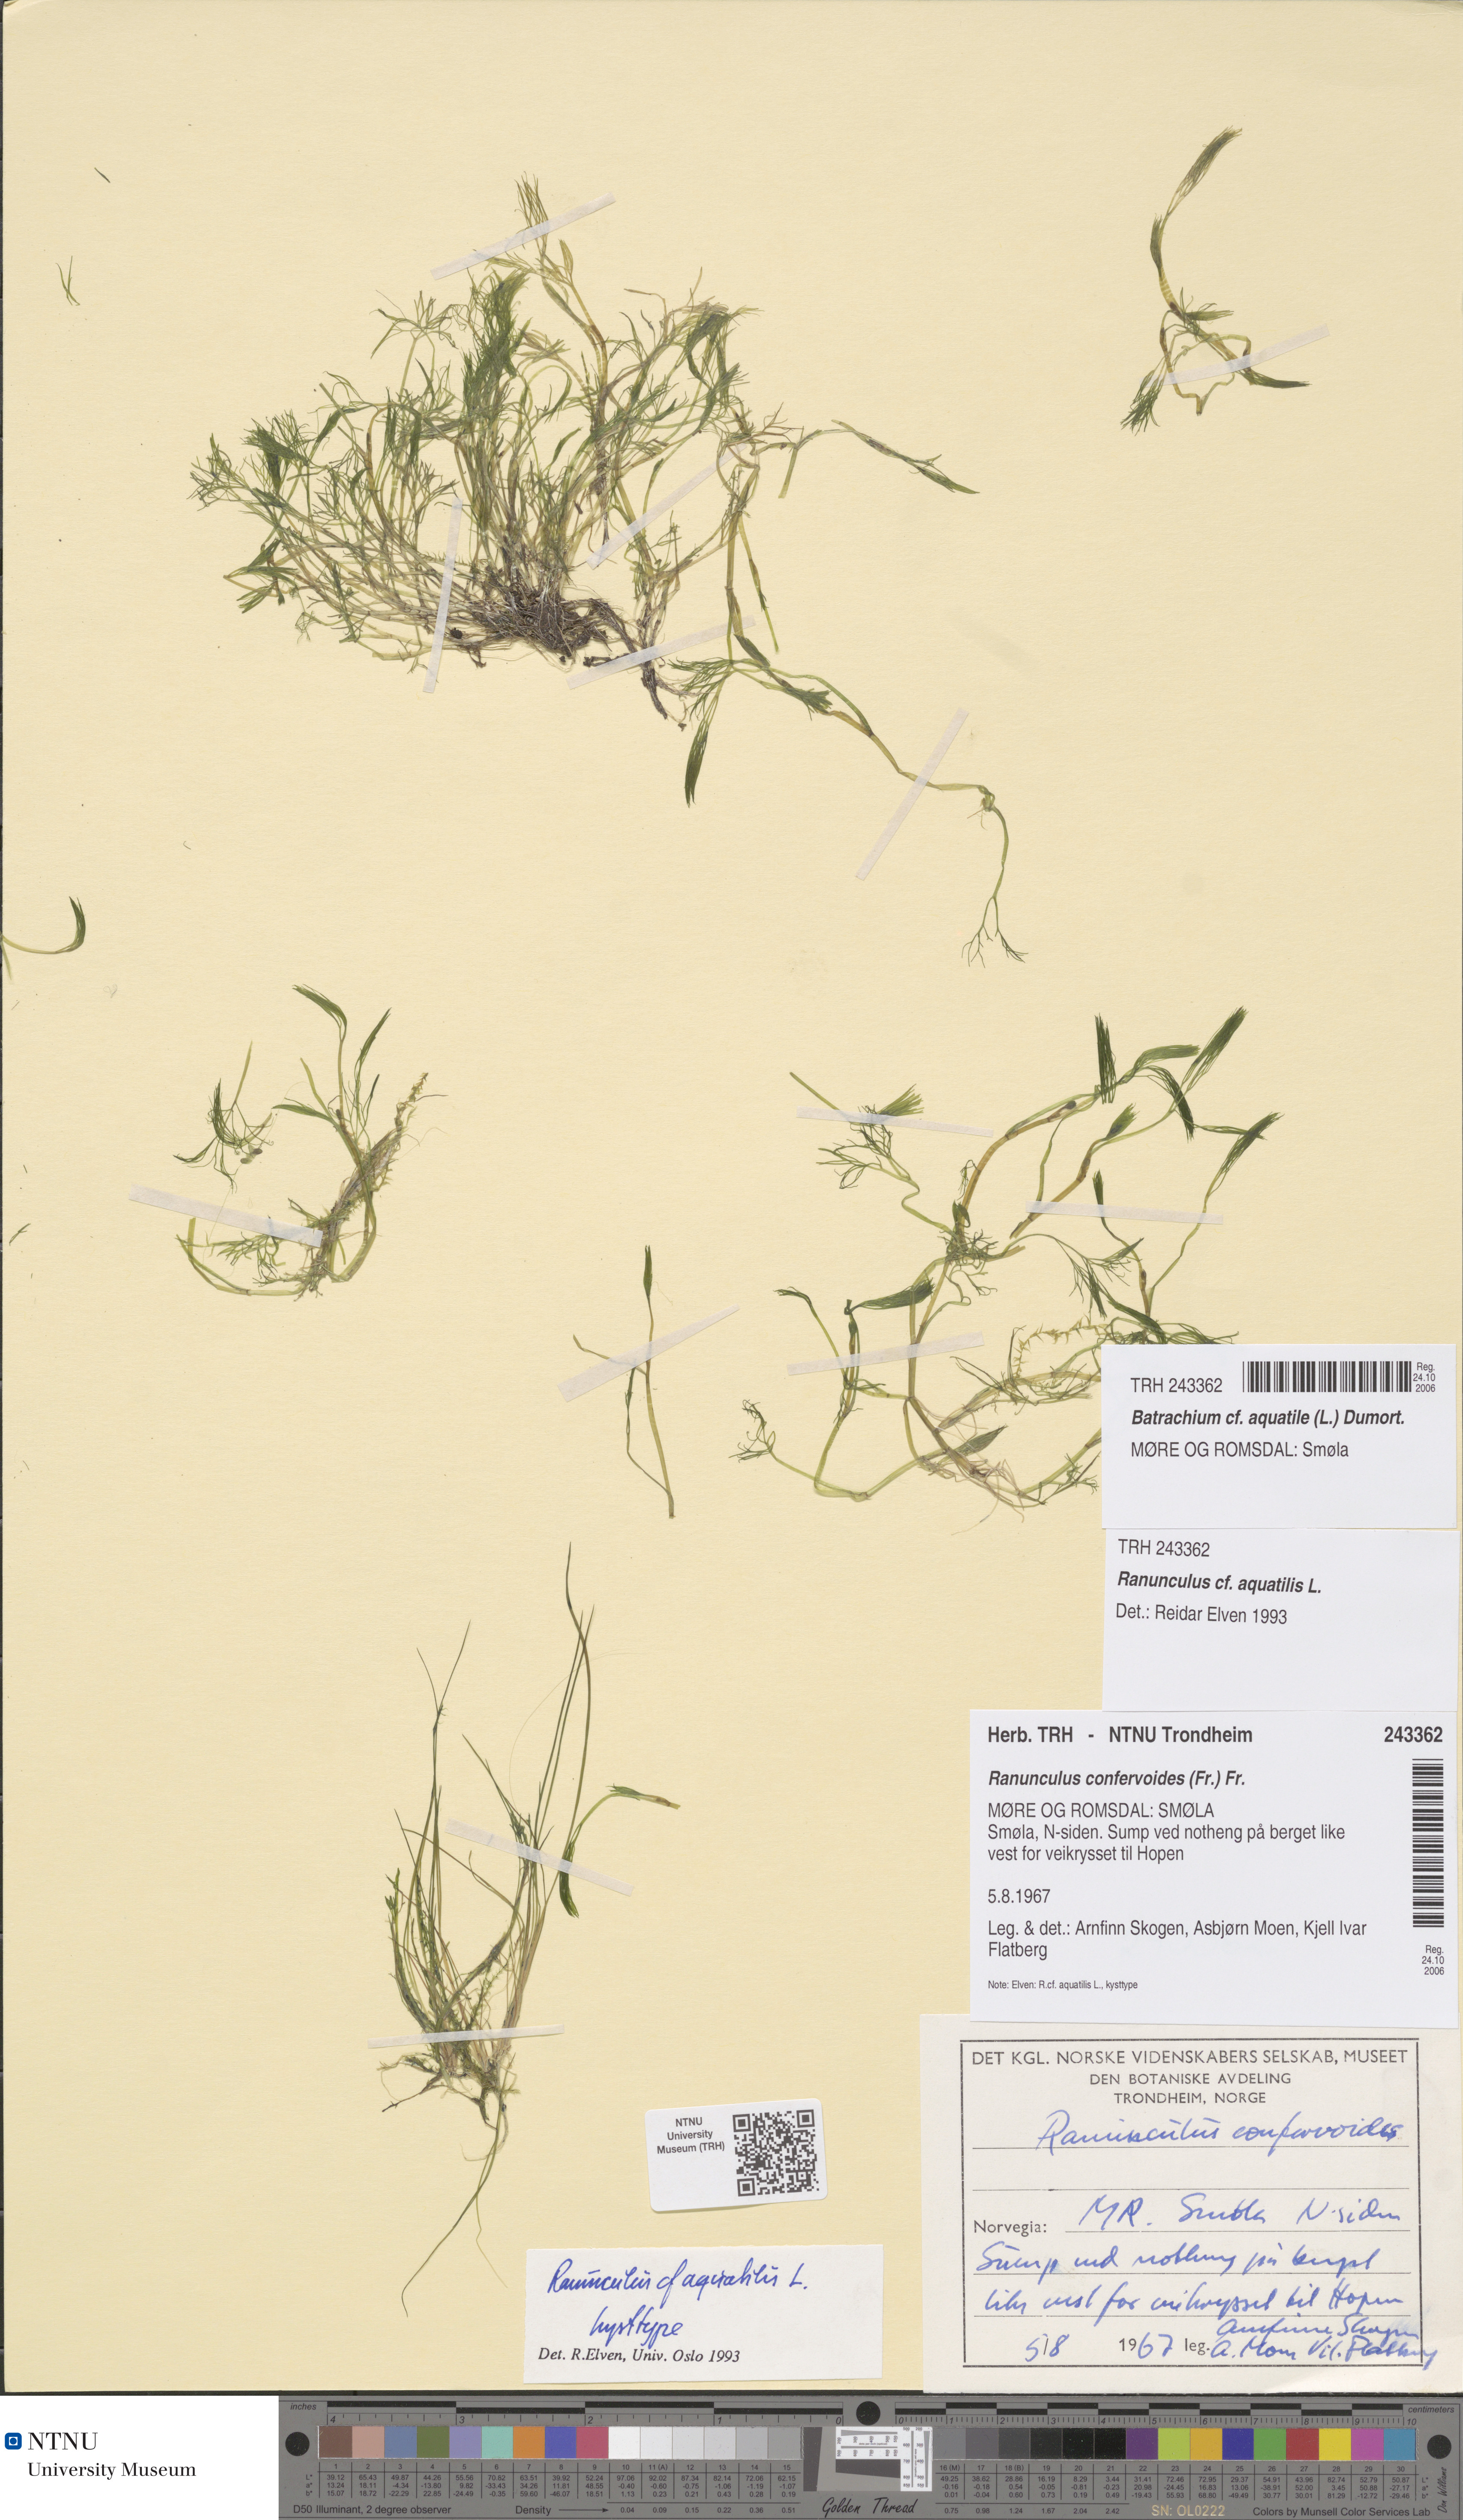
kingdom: Plantae
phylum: Tracheophyta
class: Magnoliopsida
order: Ranunculales
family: Ranunculaceae
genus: Ranunculus
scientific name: Ranunculus aquatilis
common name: Common water-crowfoot
